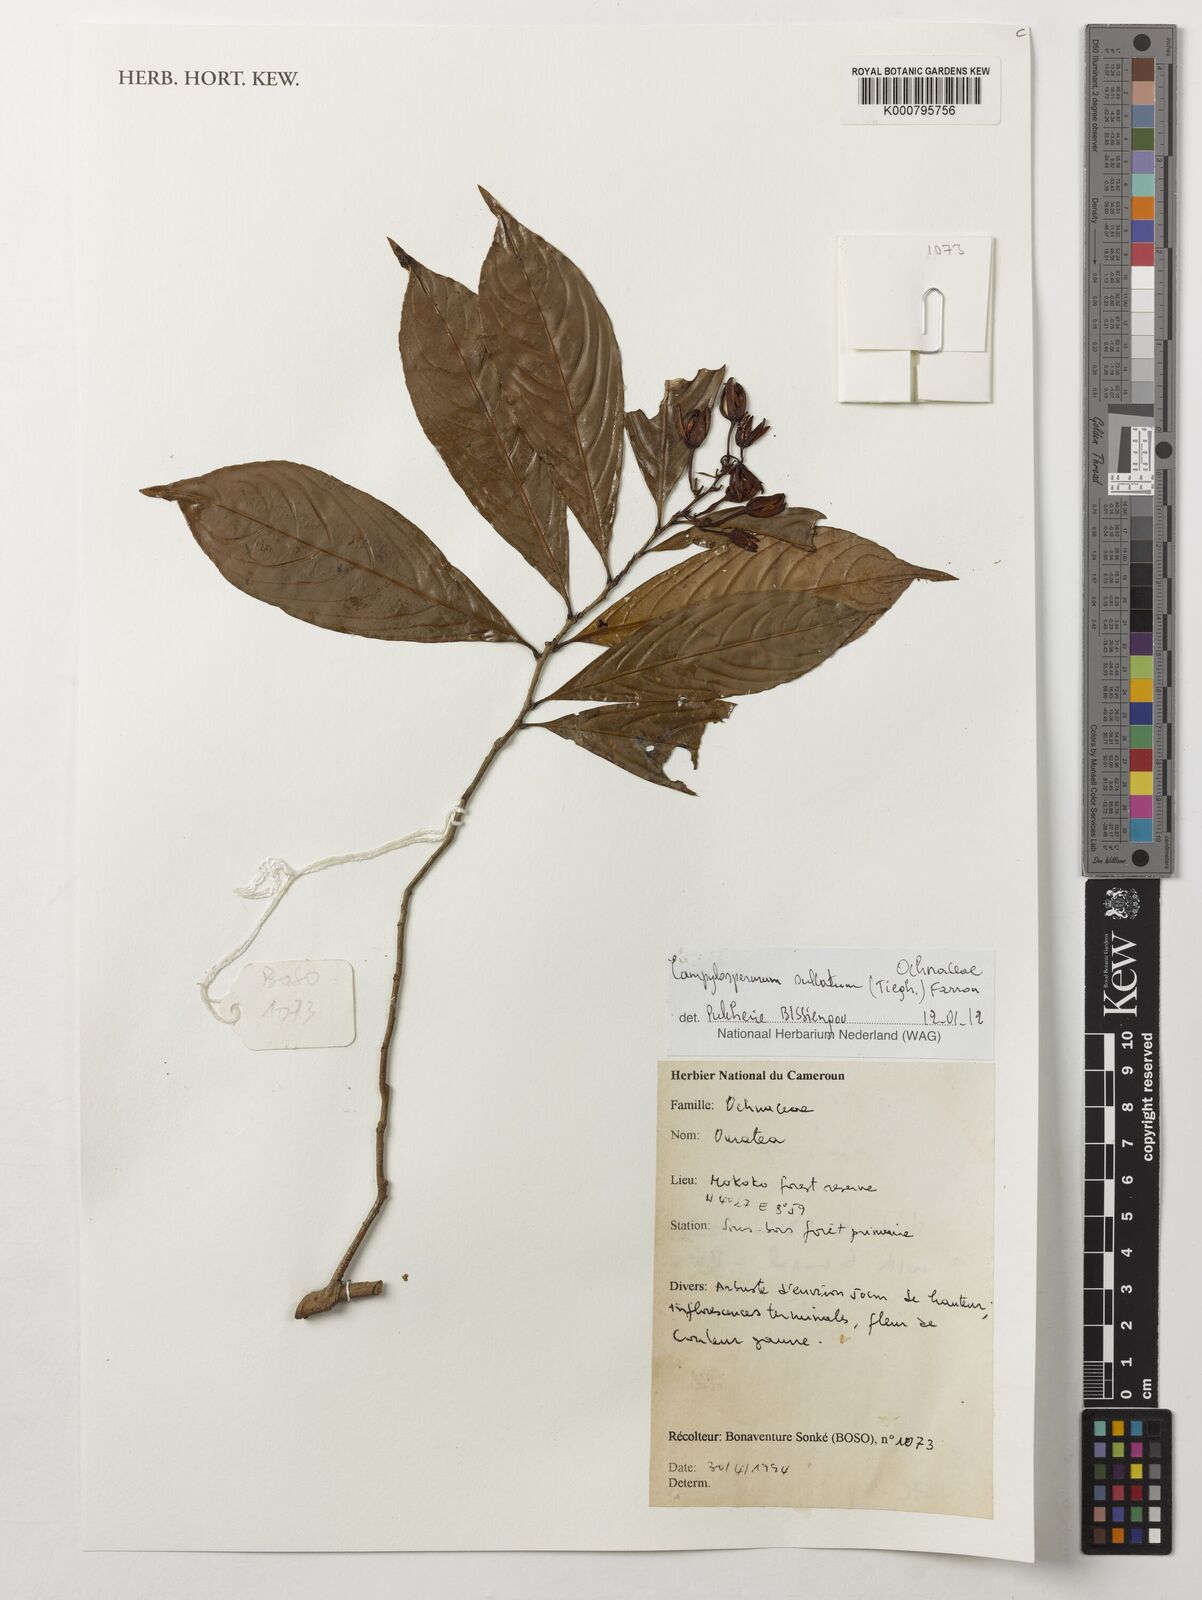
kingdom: Plantae
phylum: Tracheophyta
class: Magnoliopsida
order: Malpighiales
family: Ochnaceae
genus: Campylospermum
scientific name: Campylospermum sulcatum
